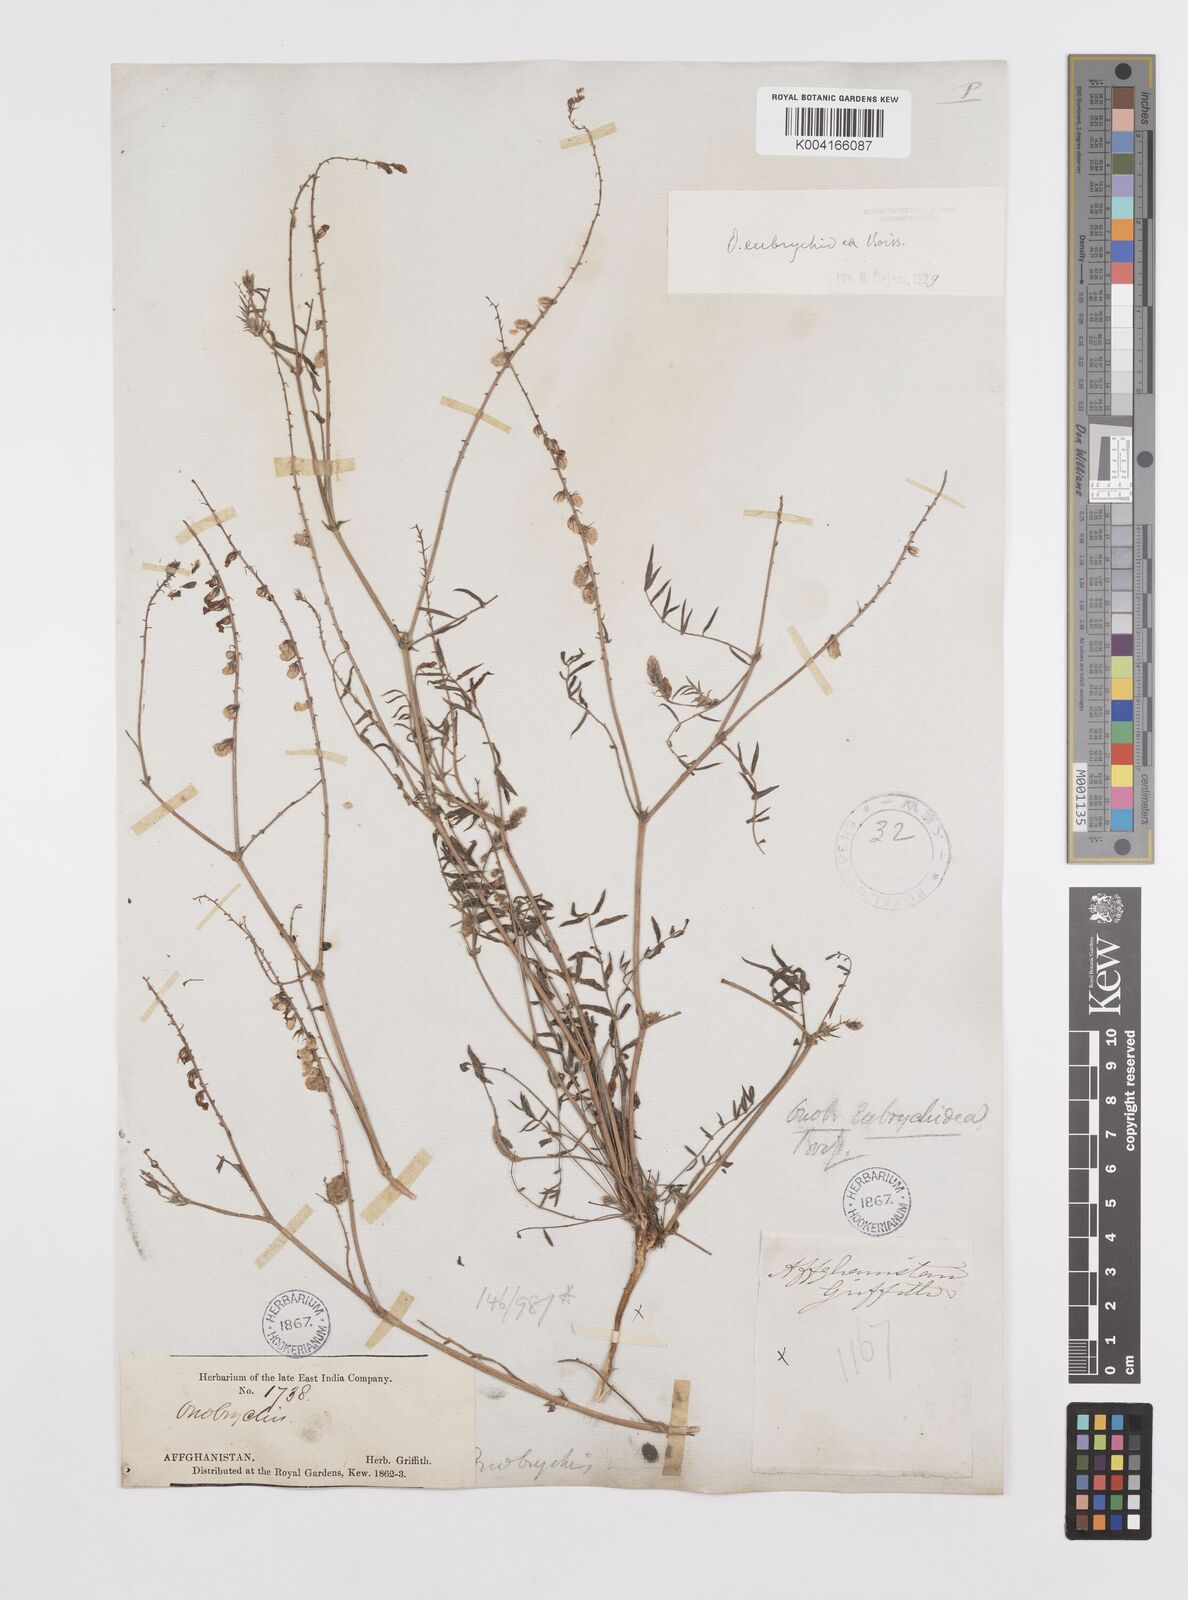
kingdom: Plantae
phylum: Tracheophyta
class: Magnoliopsida
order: Fabales
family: Fabaceae
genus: Onobrychis
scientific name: Onobrychis eubrychidea
